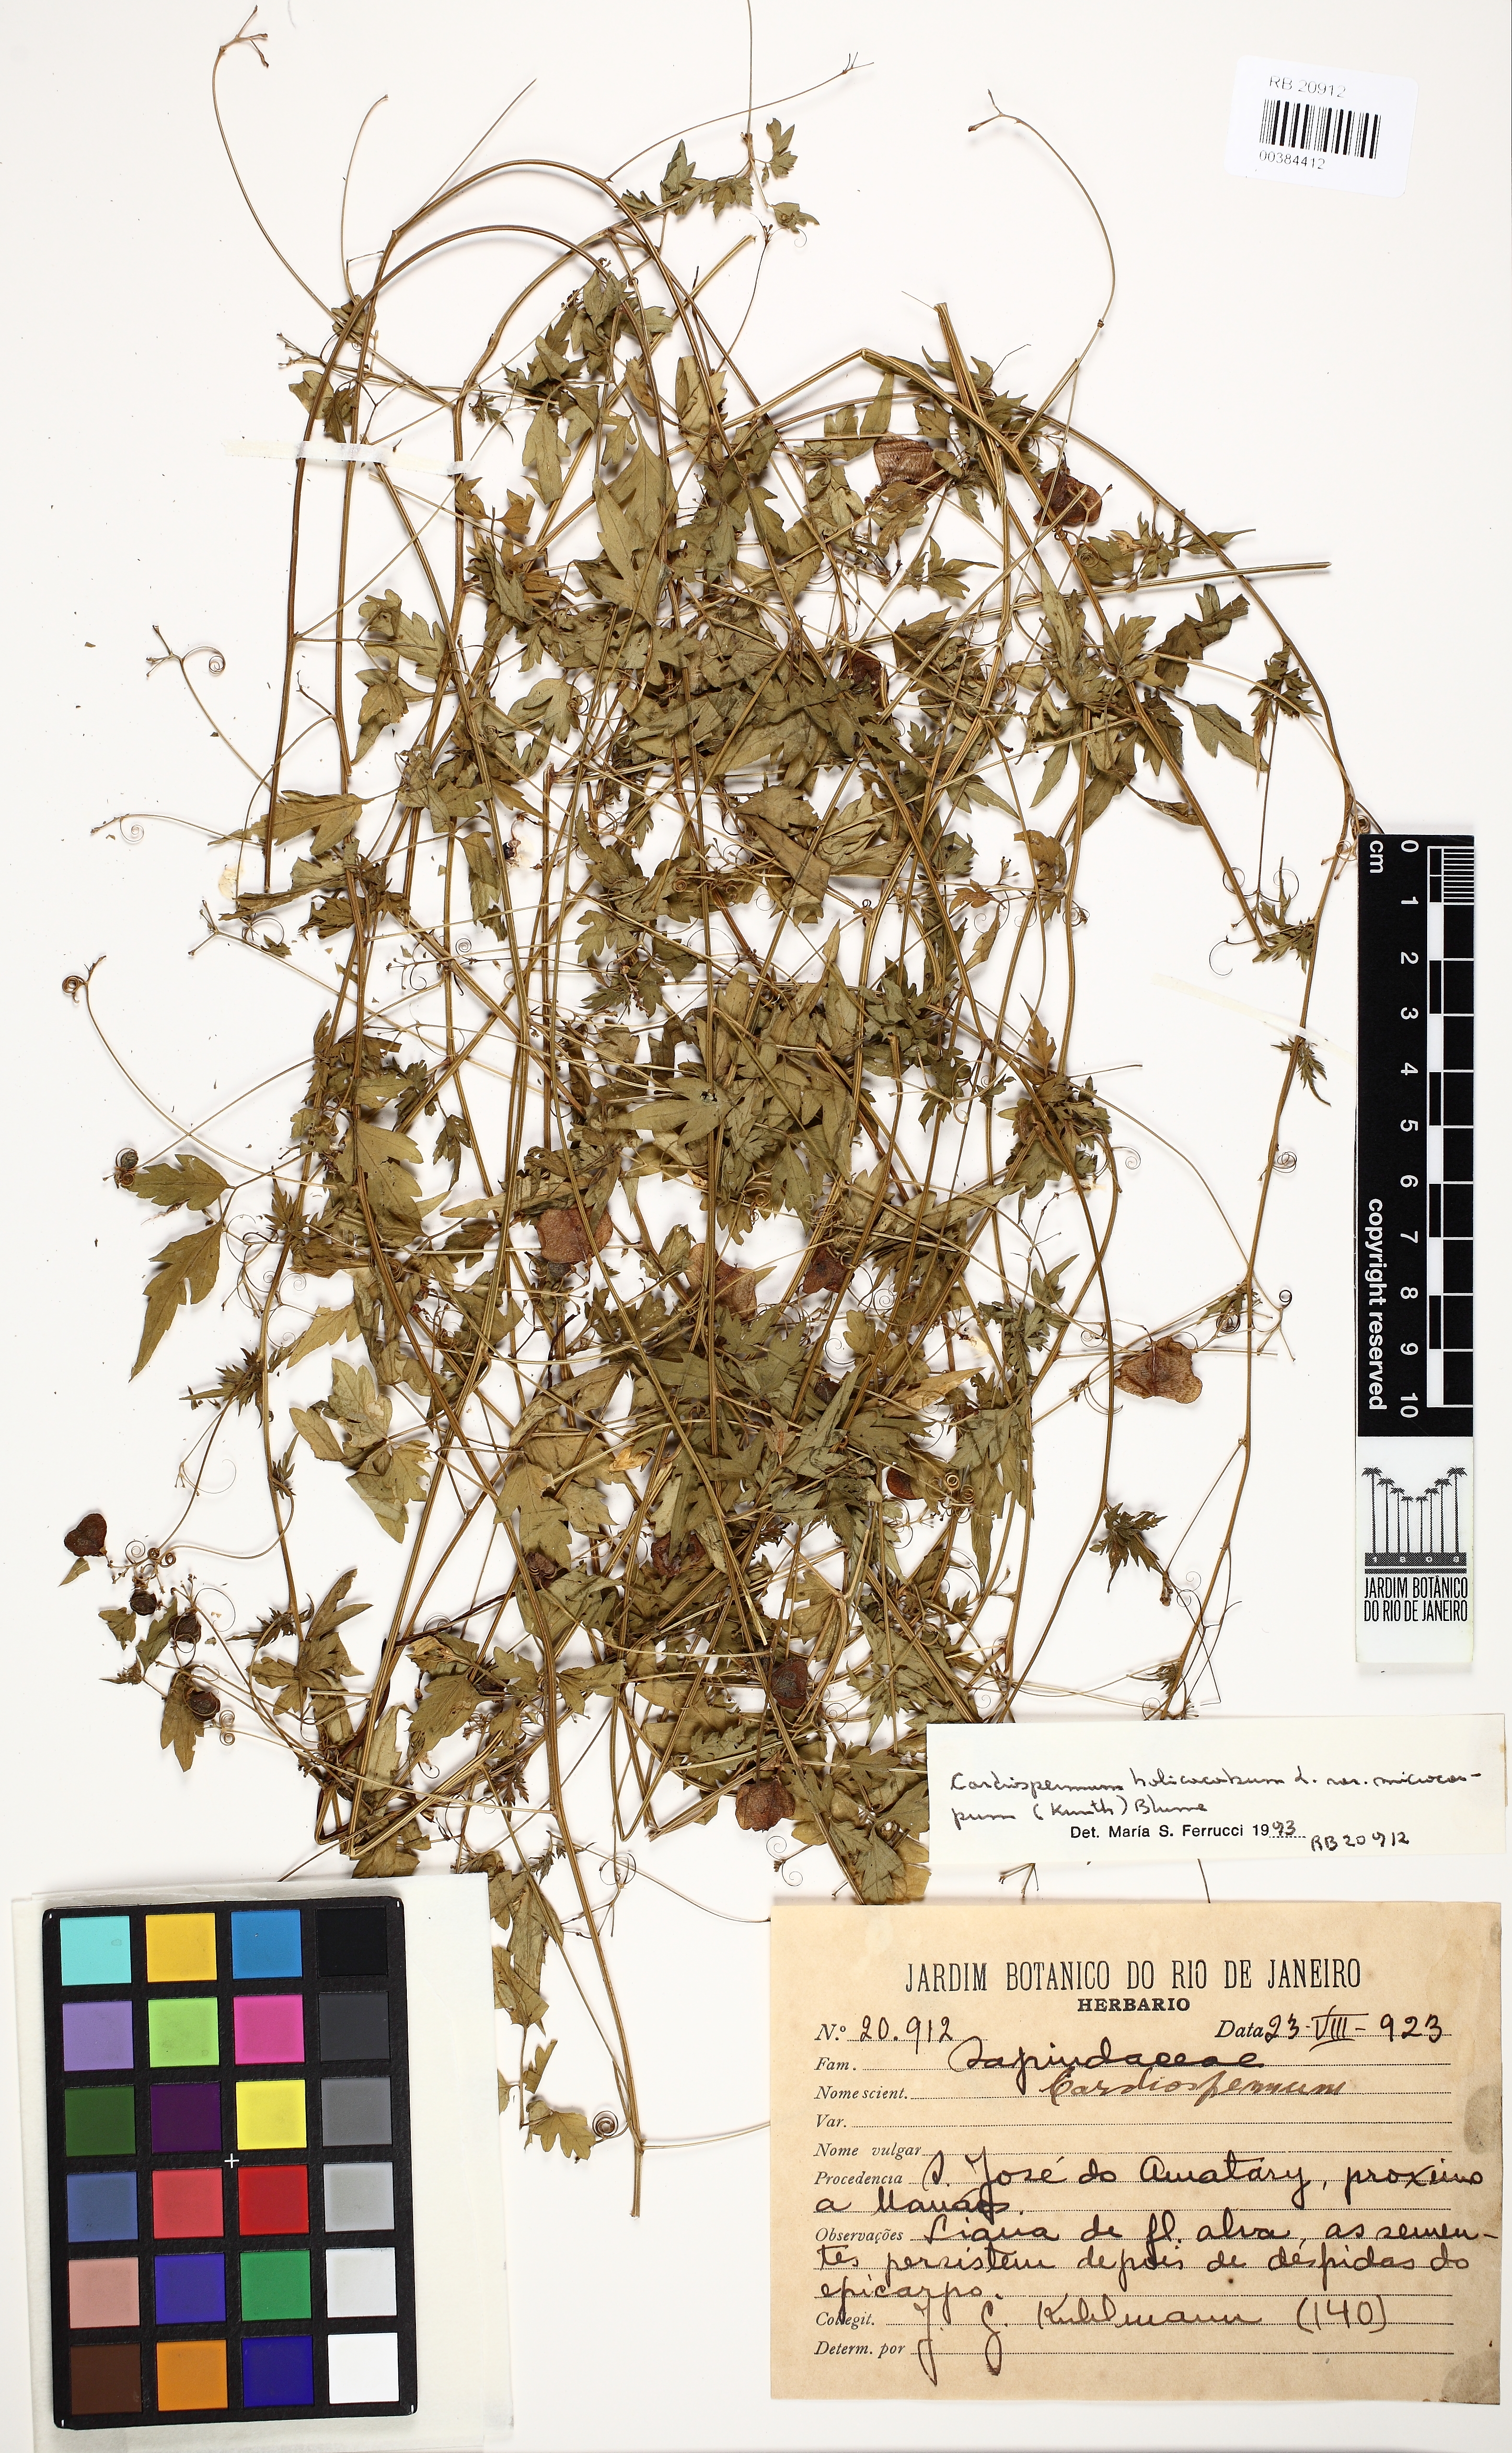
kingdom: Plantae
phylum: Tracheophyta
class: Magnoliopsida
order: Sapindales
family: Sapindaceae
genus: Cardiospermum
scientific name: Cardiospermum microcarpum
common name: Heart seed
